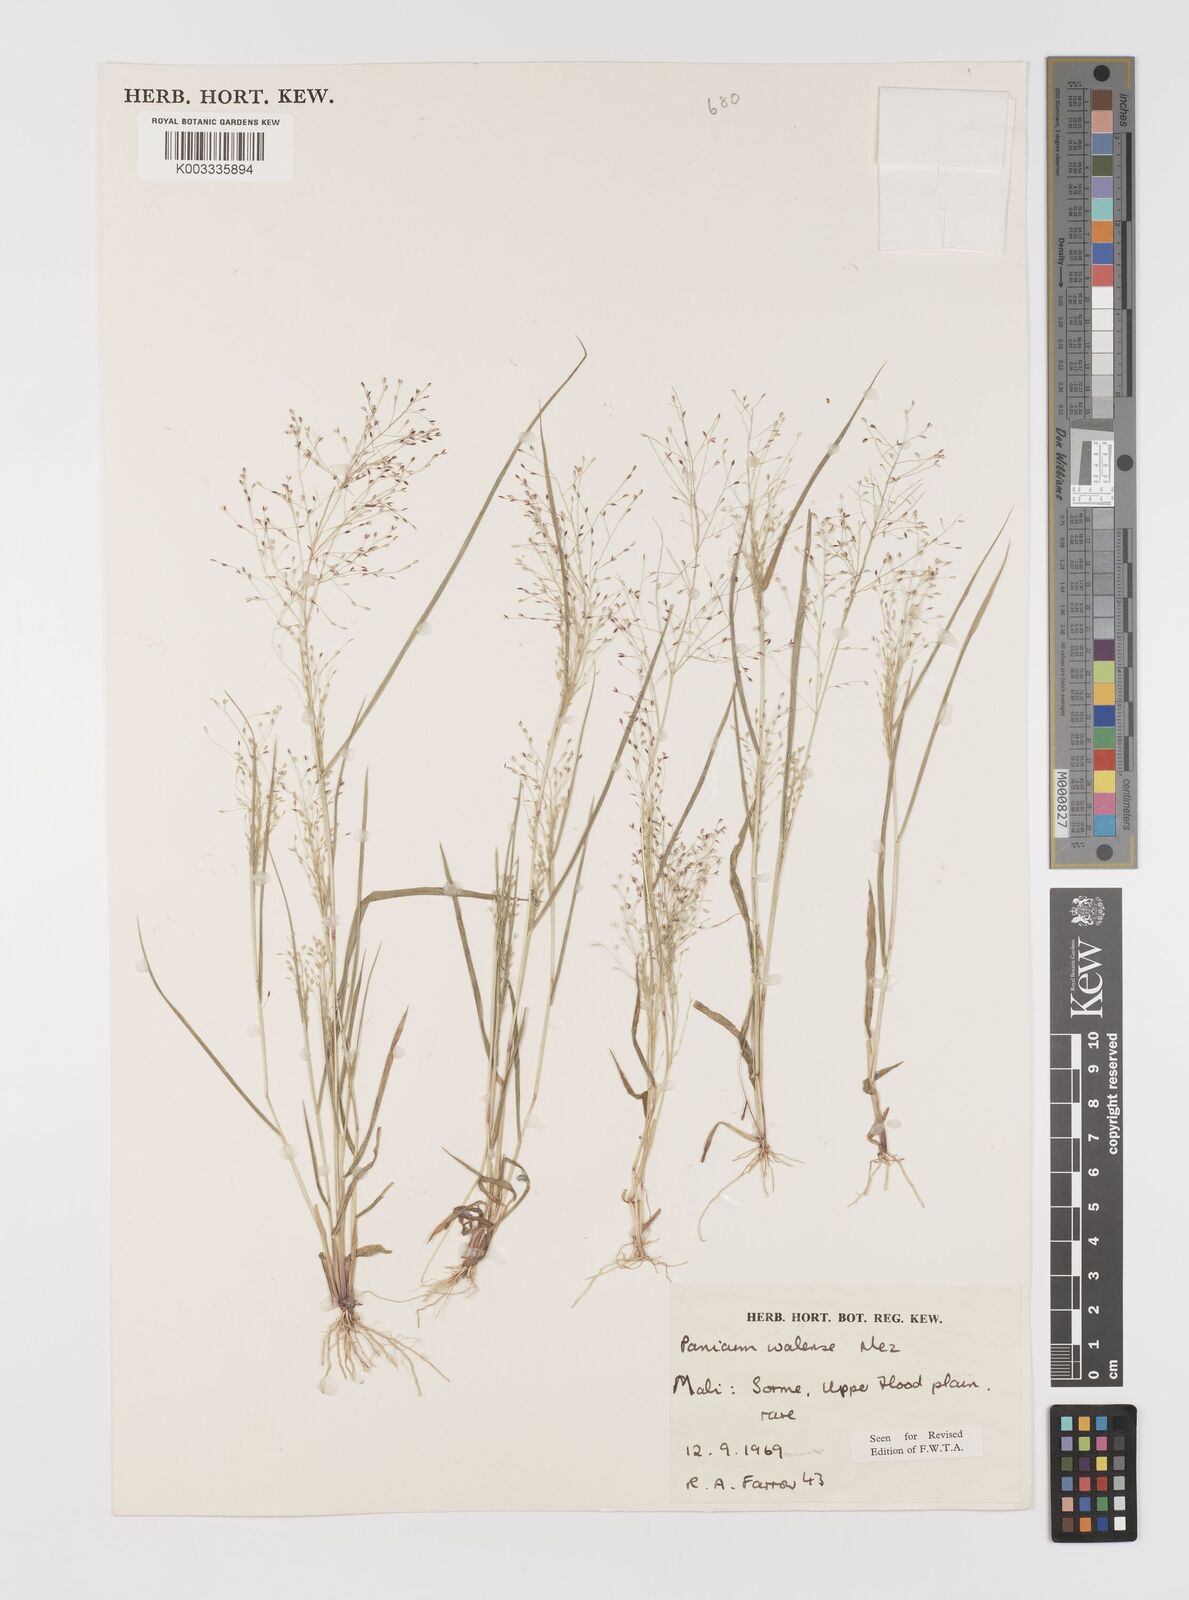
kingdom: Plantae
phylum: Tracheophyta
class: Liliopsida
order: Poales
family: Poaceae
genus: Panicum
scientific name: Panicum humile
